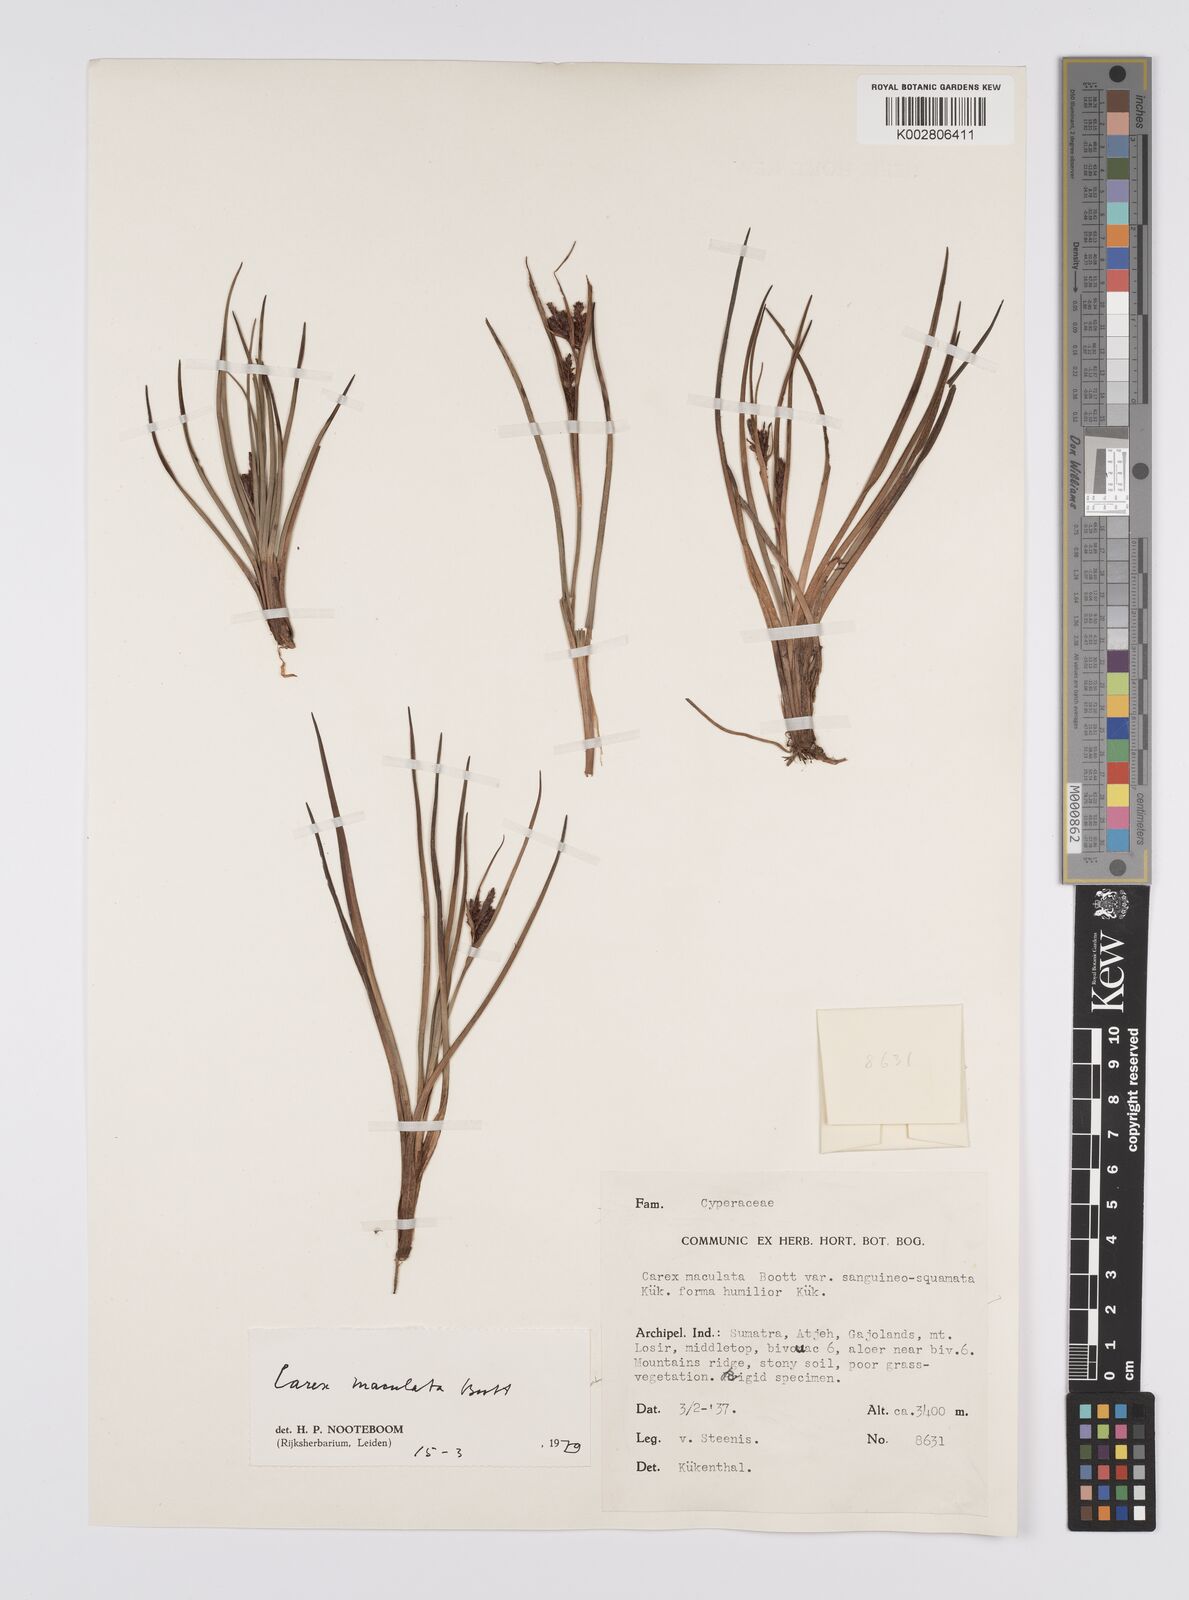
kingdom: Plantae
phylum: Tracheophyta
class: Liliopsida
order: Poales
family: Cyperaceae
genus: Carex
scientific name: Carex maculata
